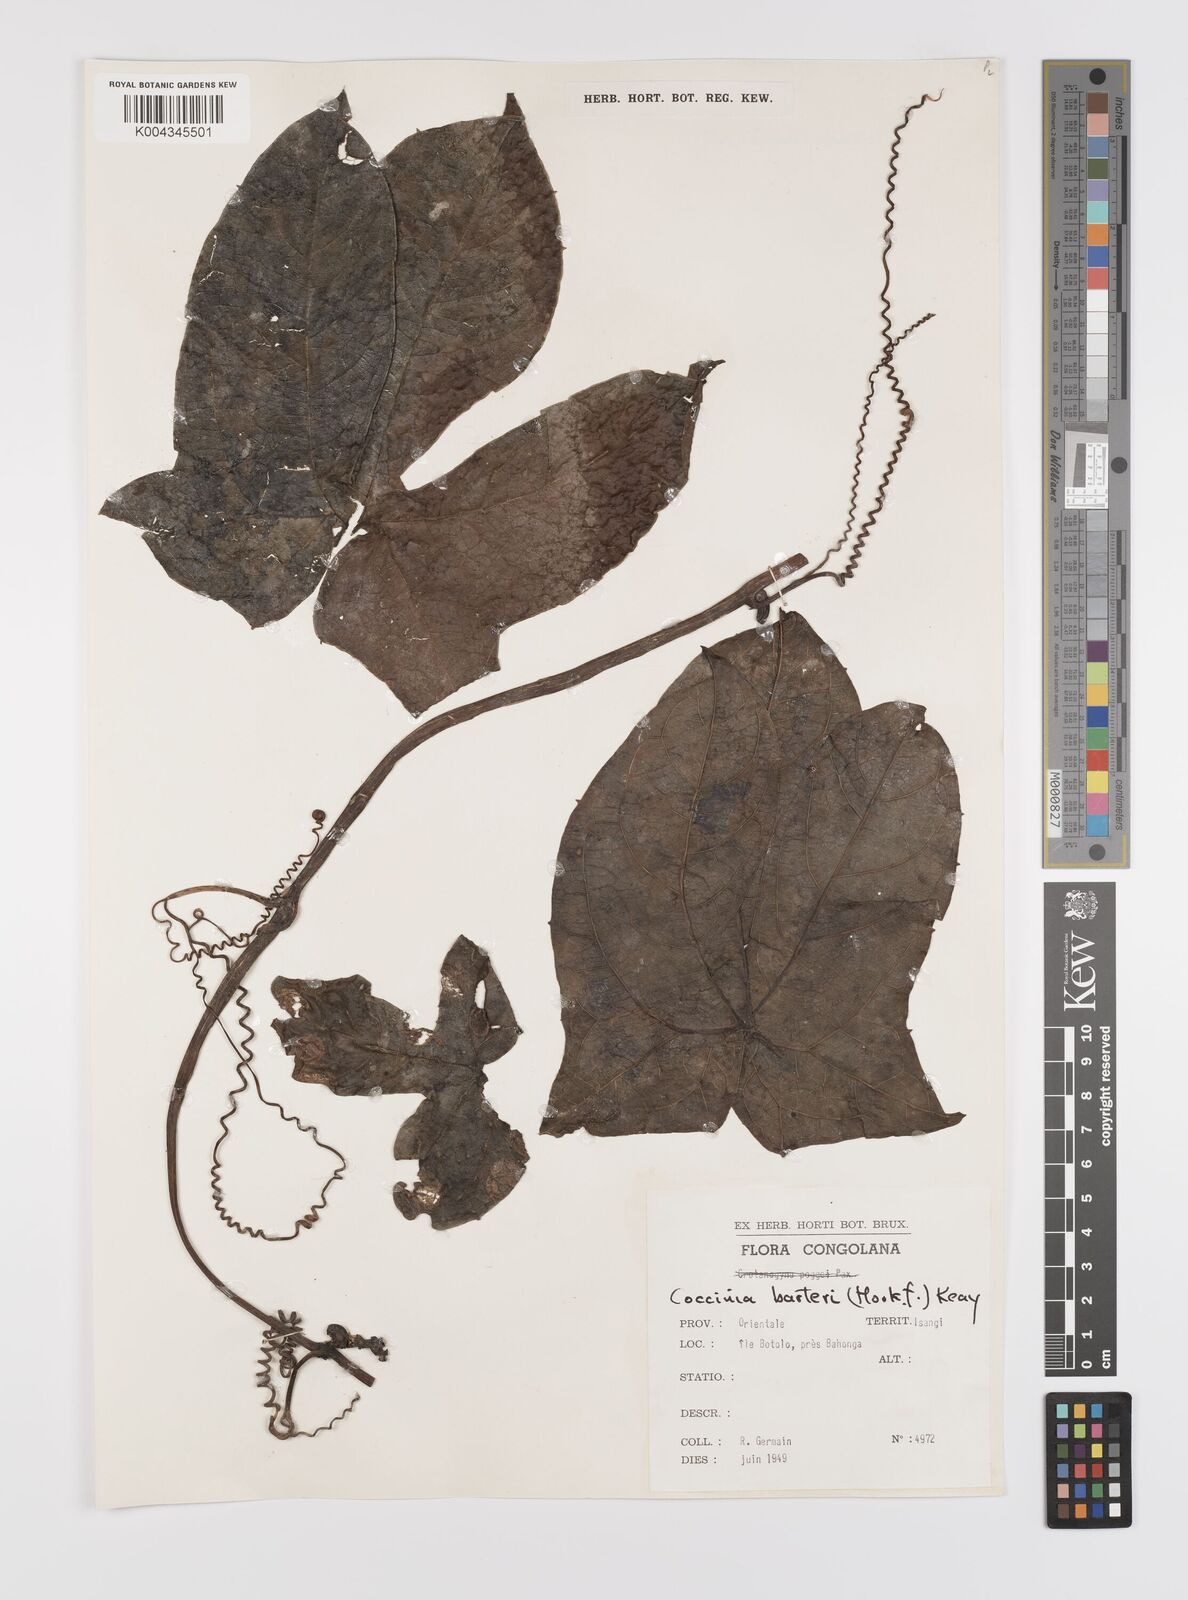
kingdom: Plantae
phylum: Tracheophyta
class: Magnoliopsida
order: Cucurbitales
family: Cucurbitaceae
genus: Coccinia
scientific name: Coccinia barteri
